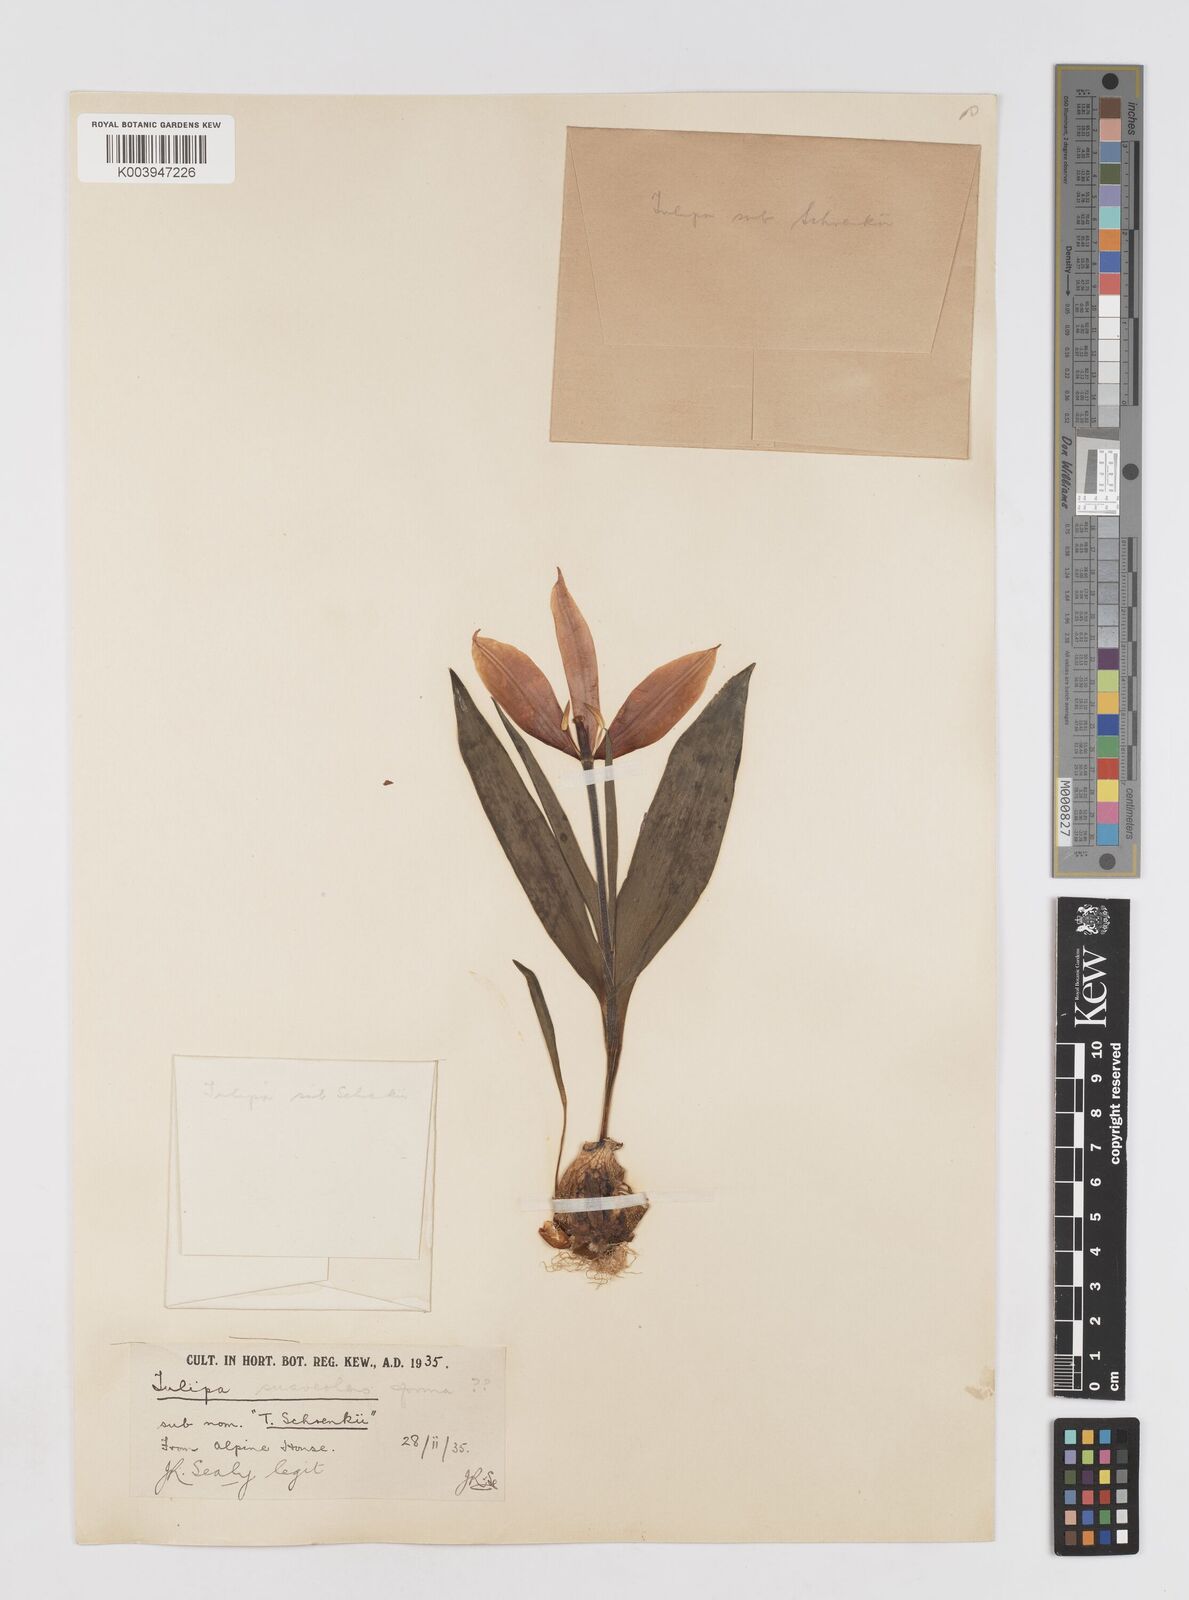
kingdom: Plantae
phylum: Tracheophyta
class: Liliopsida
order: Liliales
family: Liliaceae
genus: Tulipa
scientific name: Tulipa suaveolens
